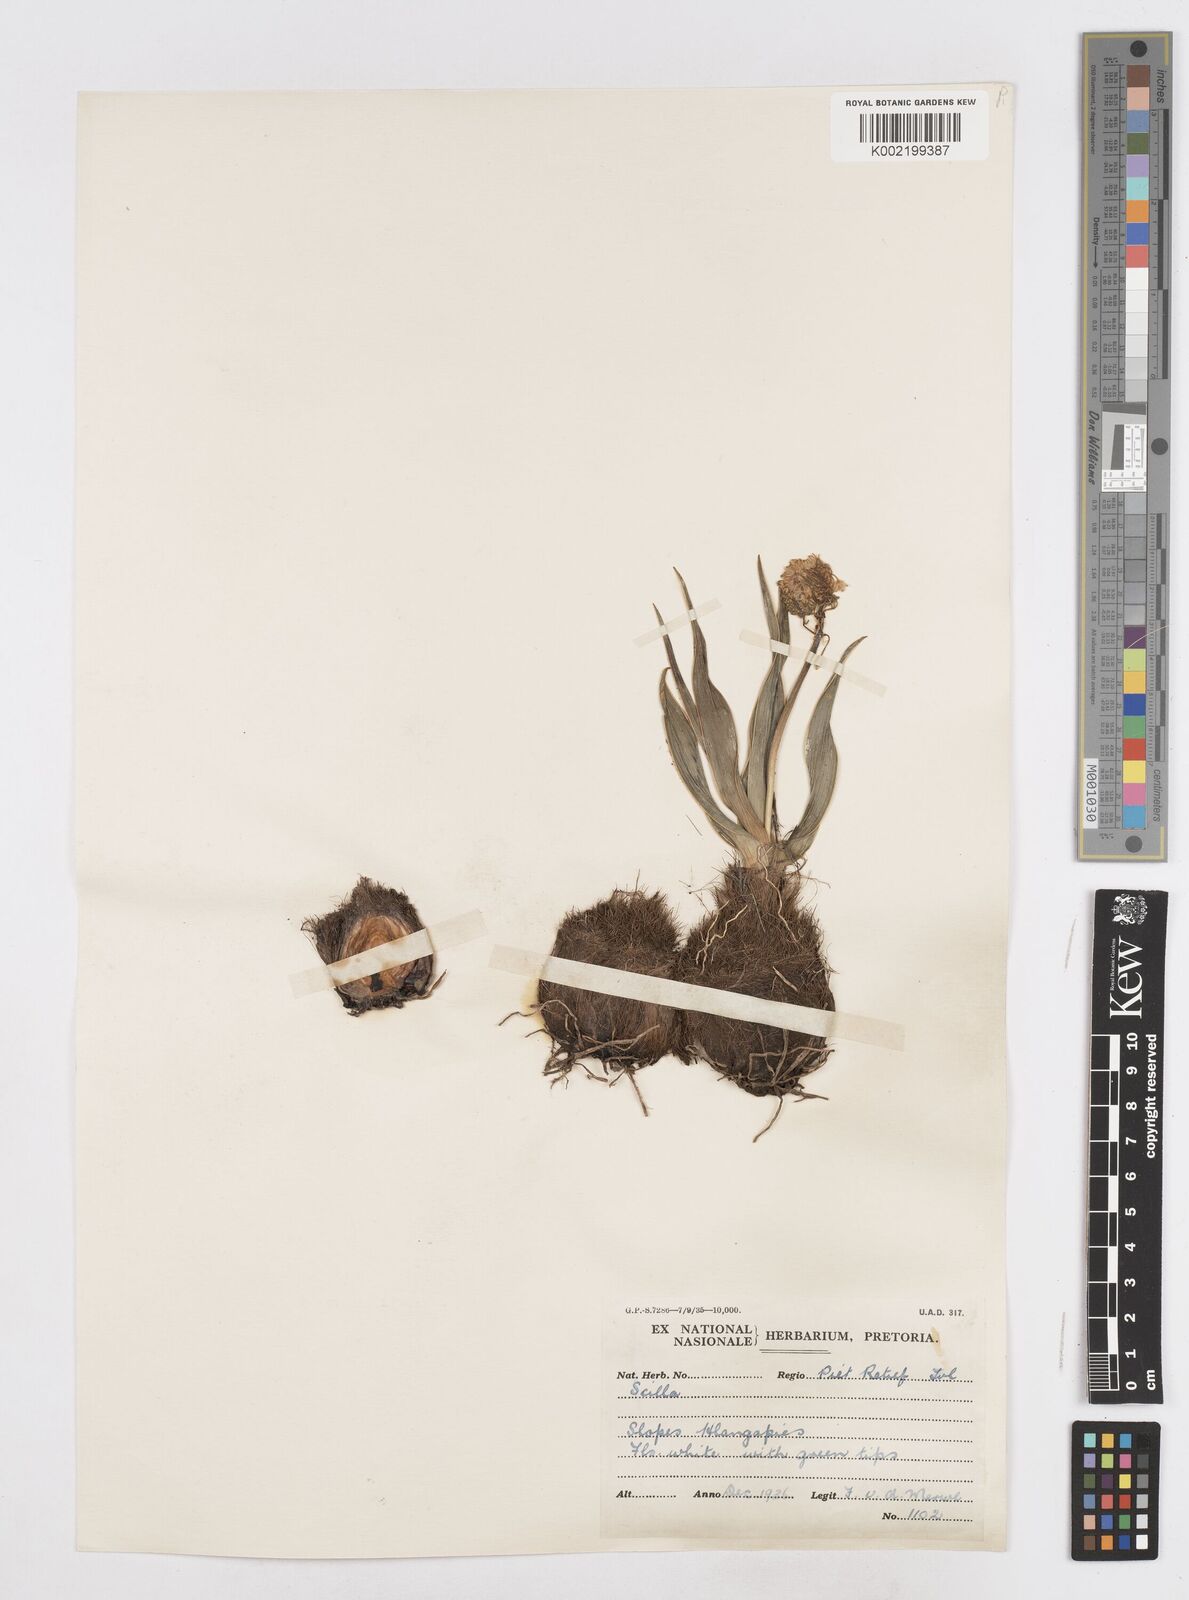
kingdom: Plantae
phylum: Tracheophyta
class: Liliopsida
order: Asparagales
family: Asparagaceae
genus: Schizocarphus
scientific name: Schizocarphus nervosus
